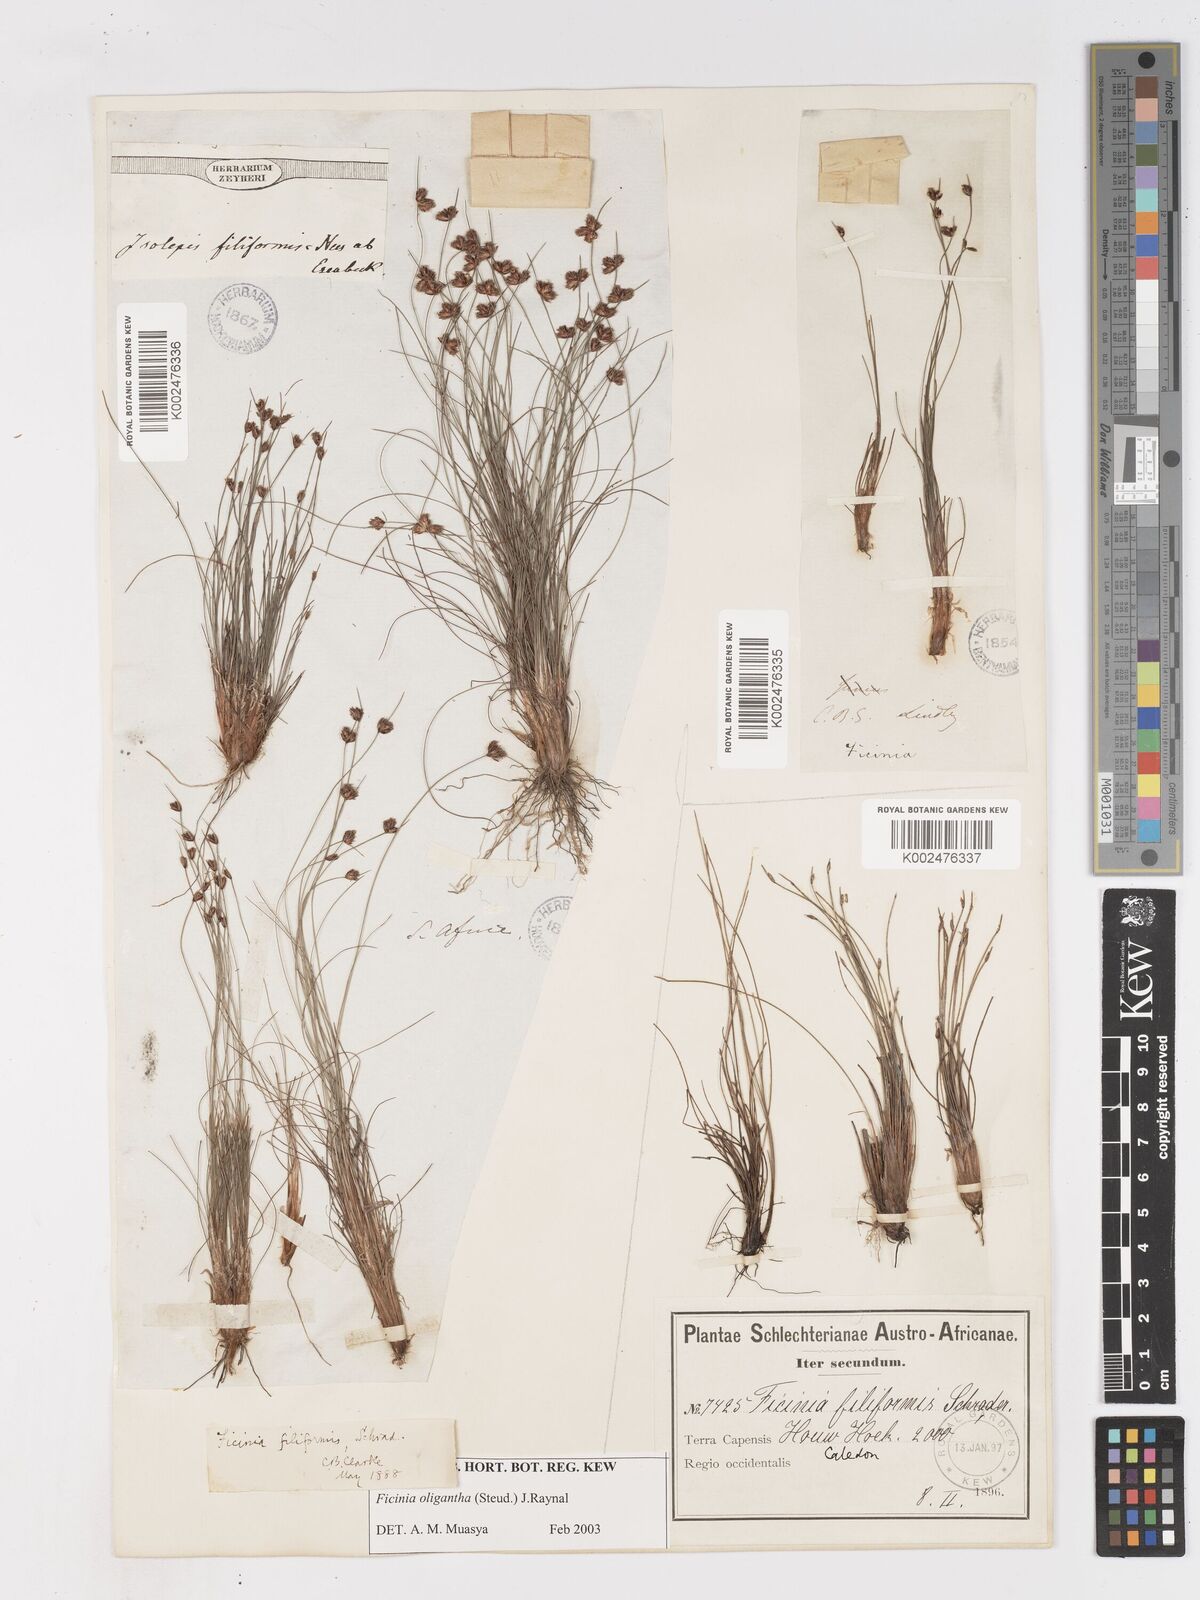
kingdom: Plantae
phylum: Tracheophyta
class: Liliopsida
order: Poales
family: Cyperaceae
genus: Ficinia
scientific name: Ficinia oligantha
